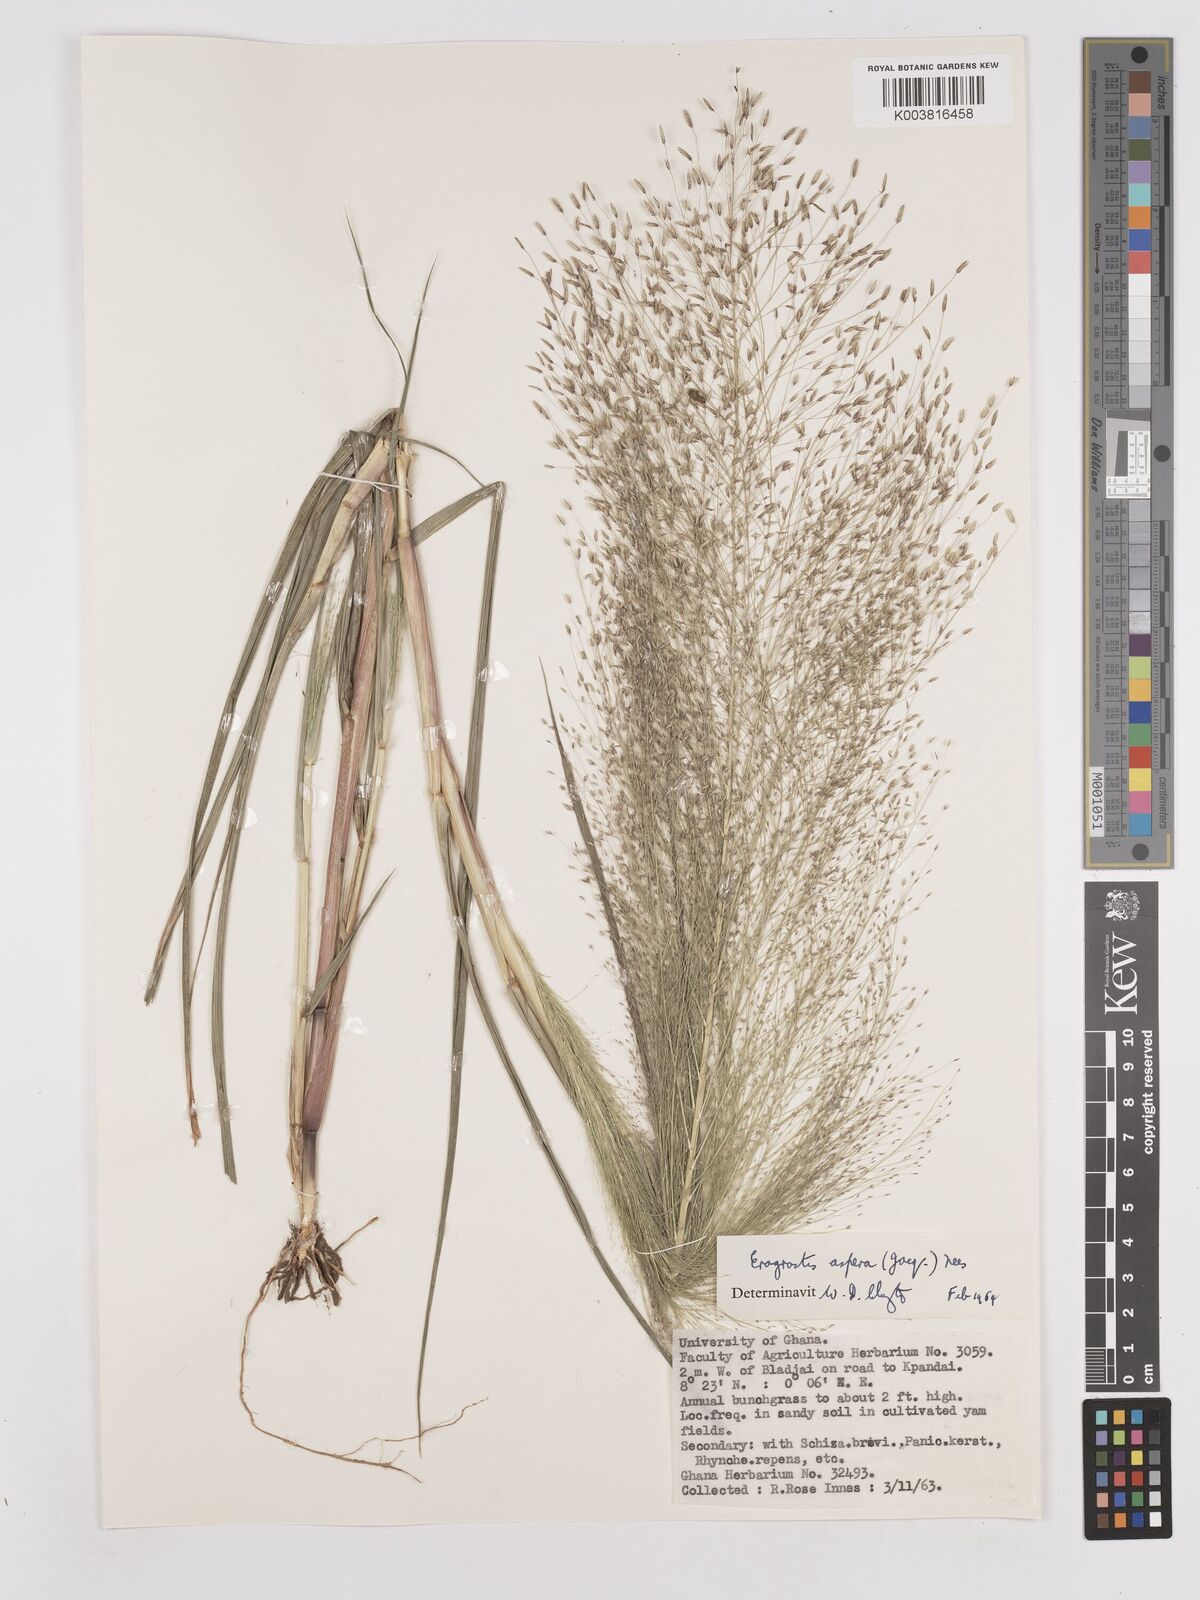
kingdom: Plantae
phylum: Tracheophyta
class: Liliopsida
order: Poales
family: Poaceae
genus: Eragrostis
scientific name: Eragrostis aspera
